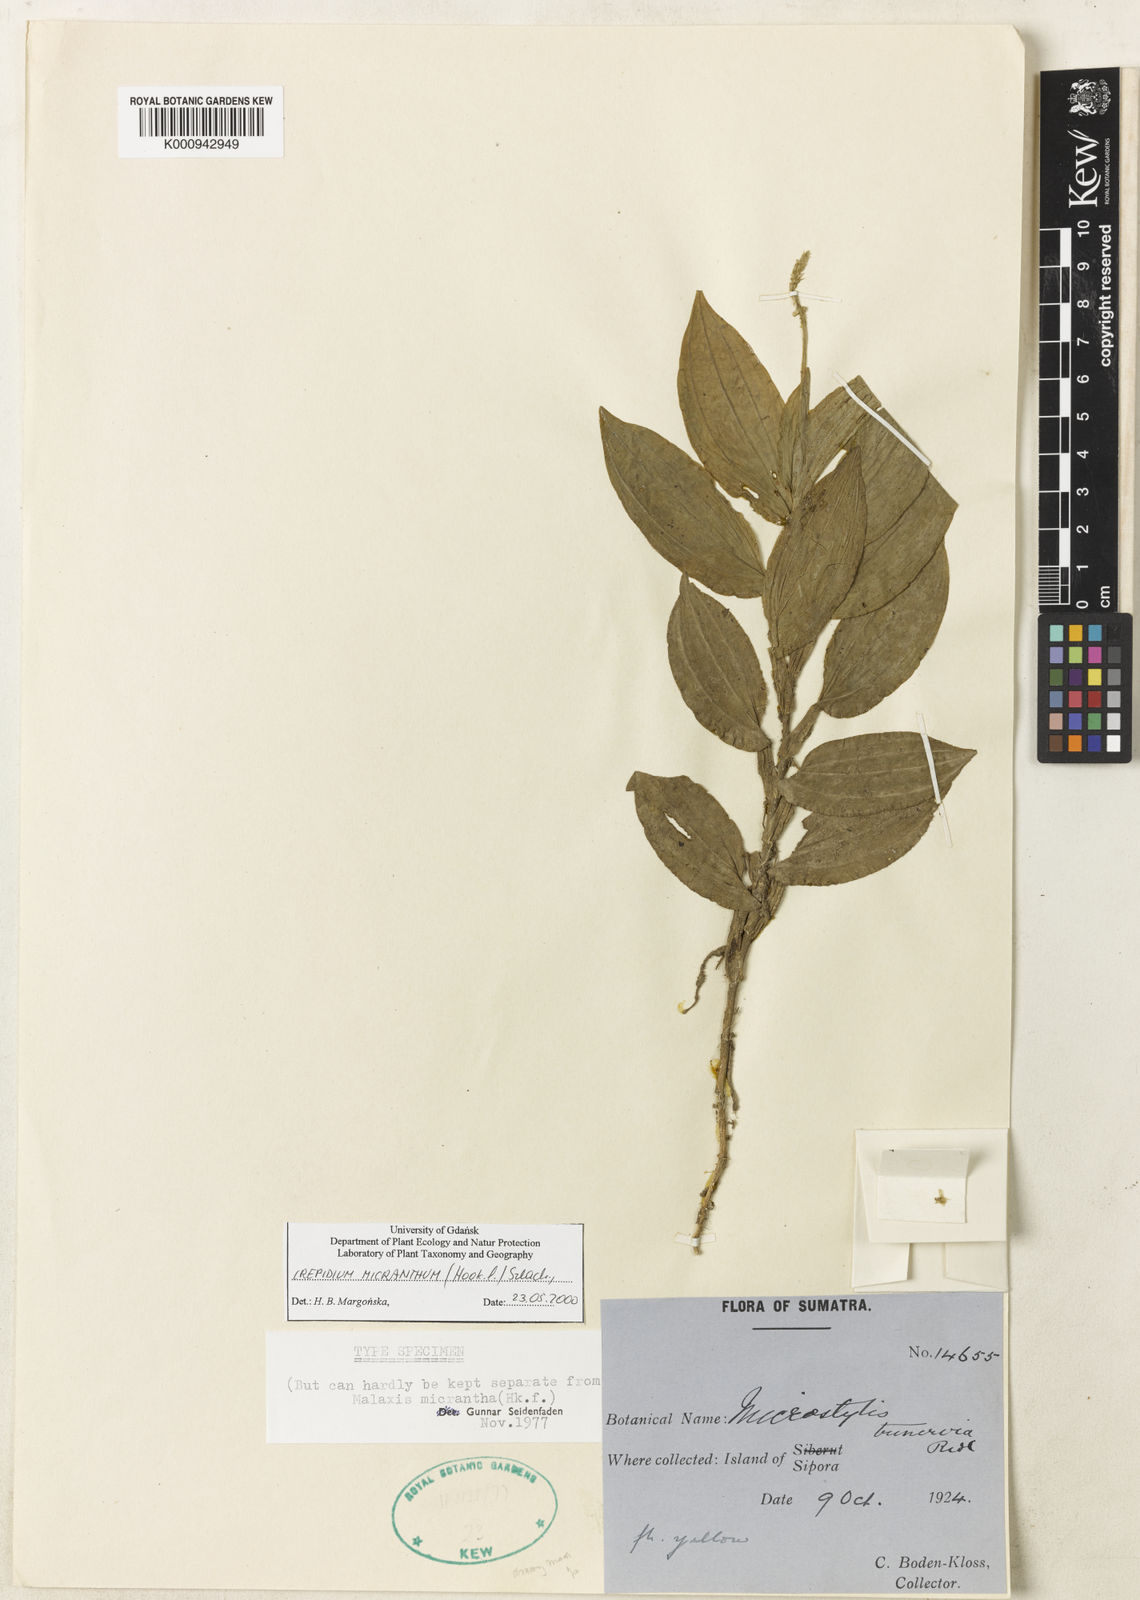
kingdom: Plantae
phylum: Tracheophyta
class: Liliopsida
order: Asparagales
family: Orchidaceae
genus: Crepidium
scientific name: Crepidium micranthum
